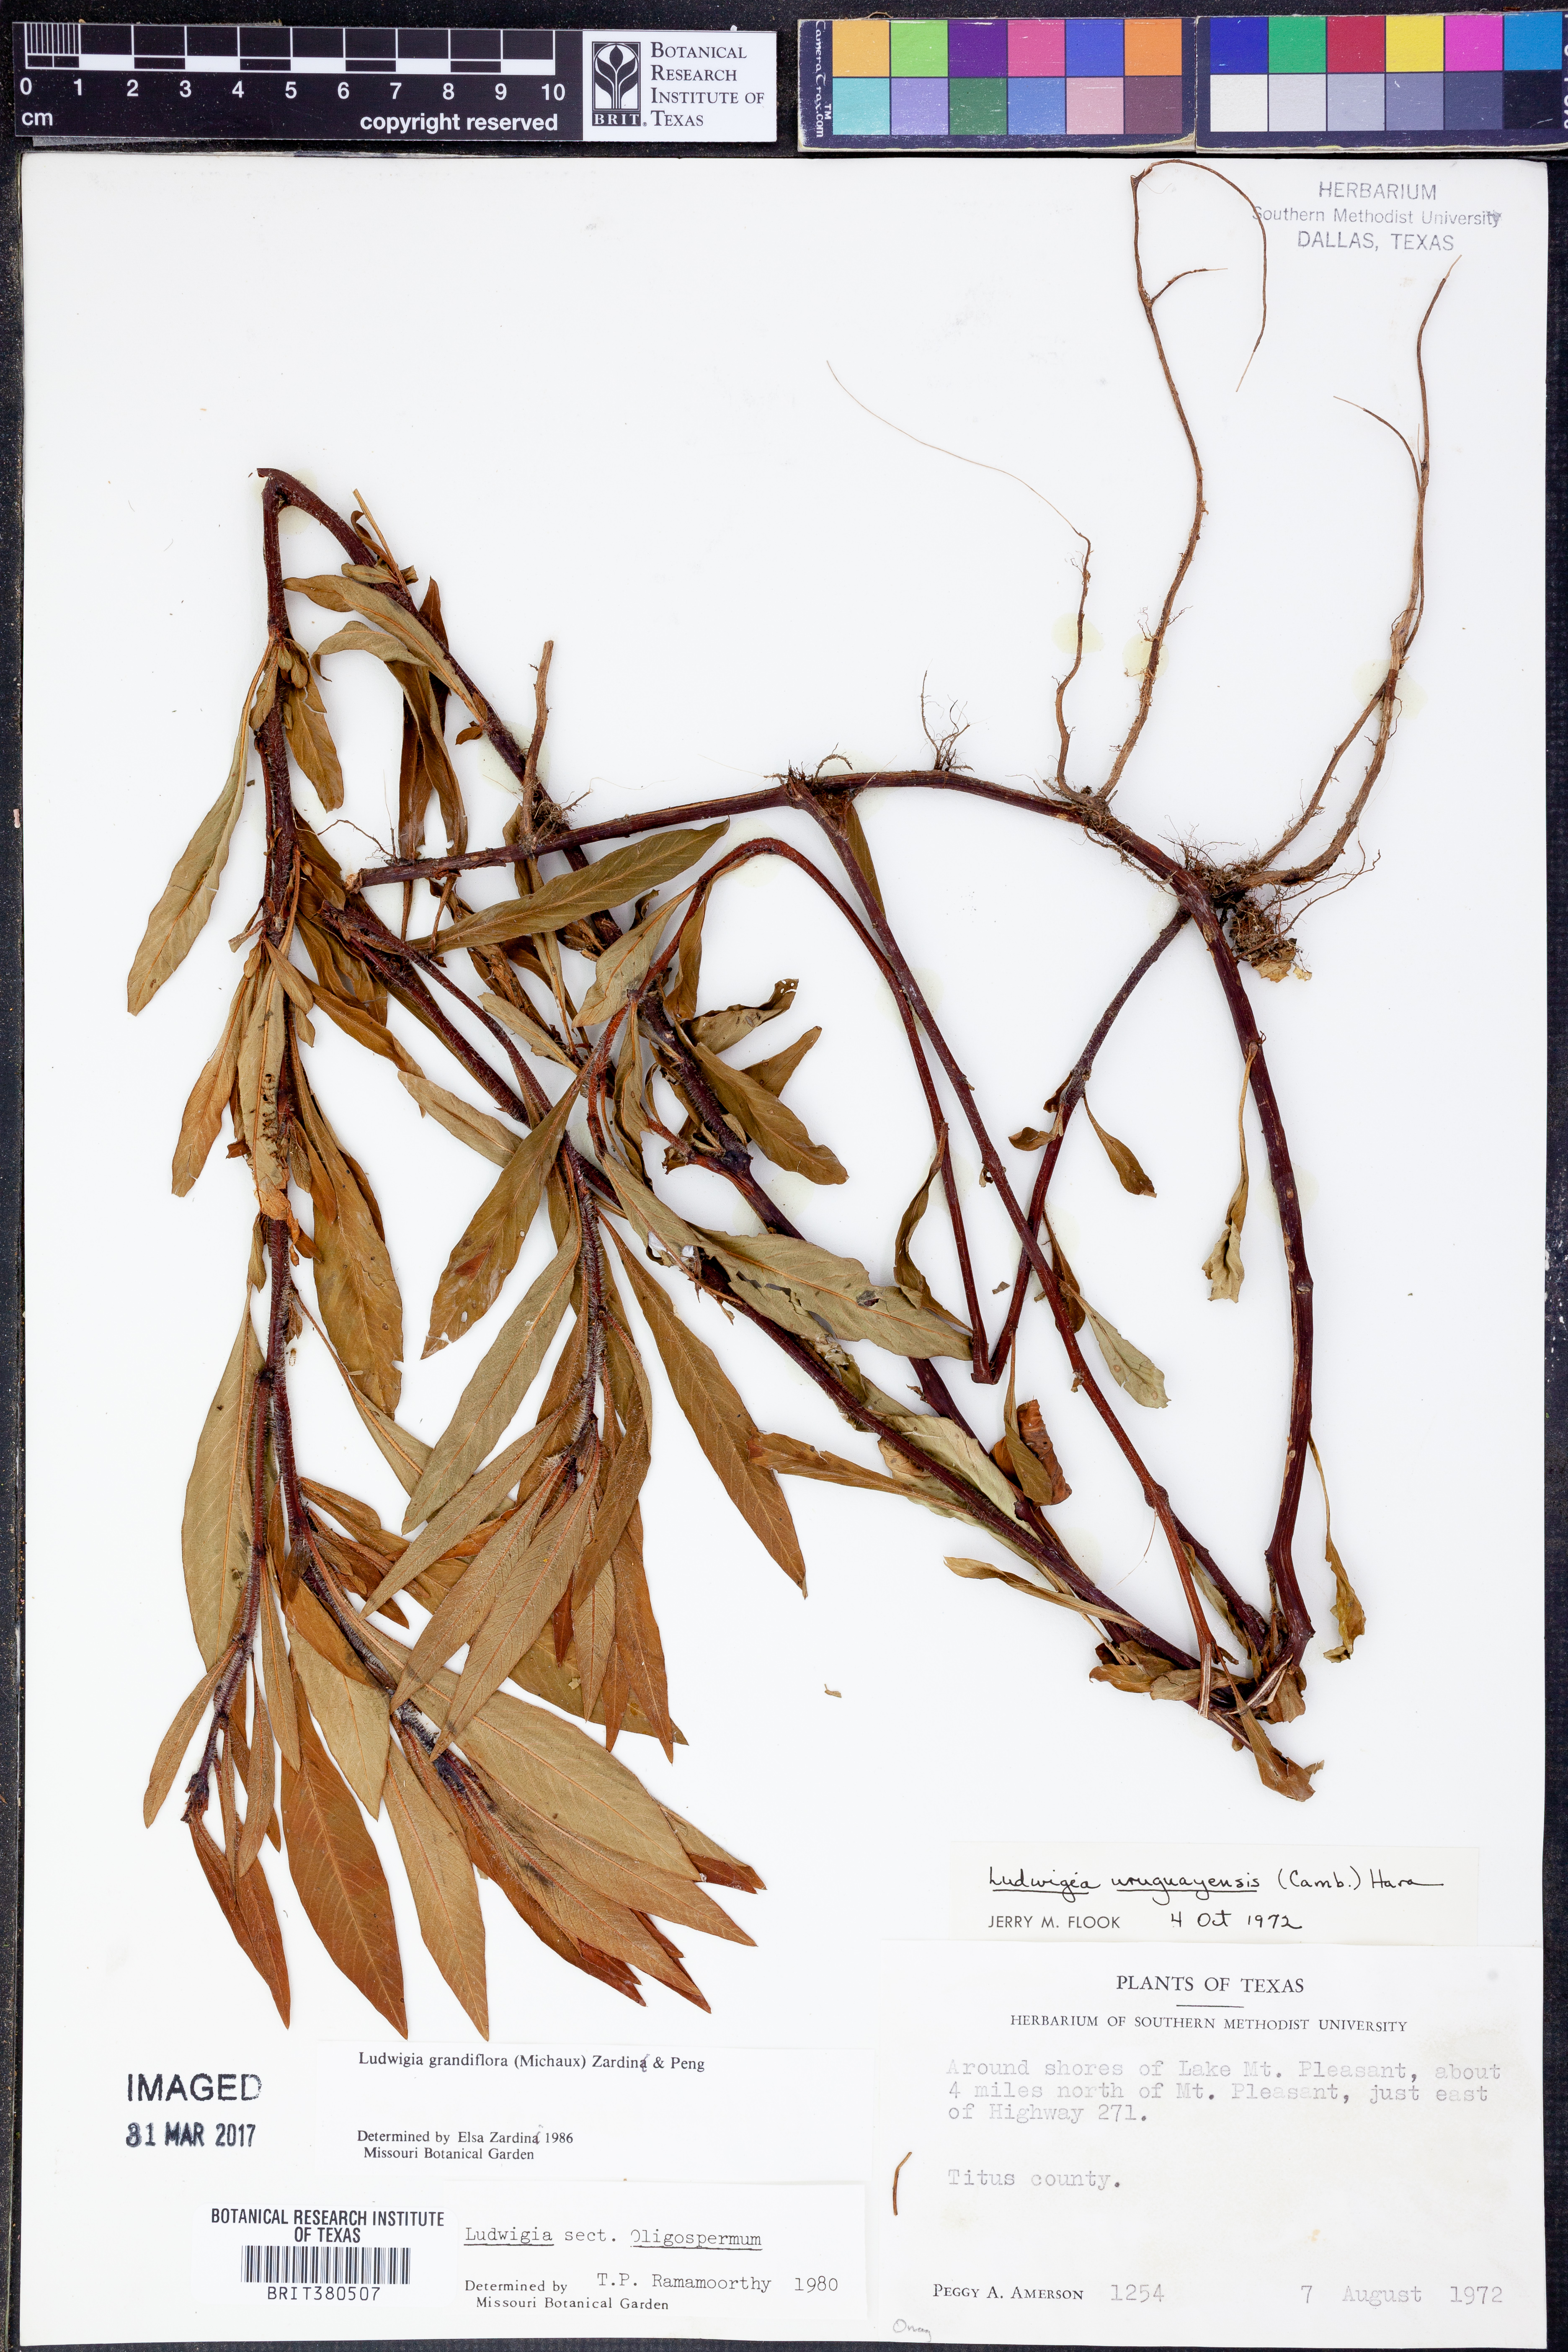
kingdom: Plantae
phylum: Tracheophyta
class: Magnoliopsida
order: Myrtales
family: Onagraceae
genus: Ludwigia
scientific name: Ludwigia grandiflora
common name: Water primrose
